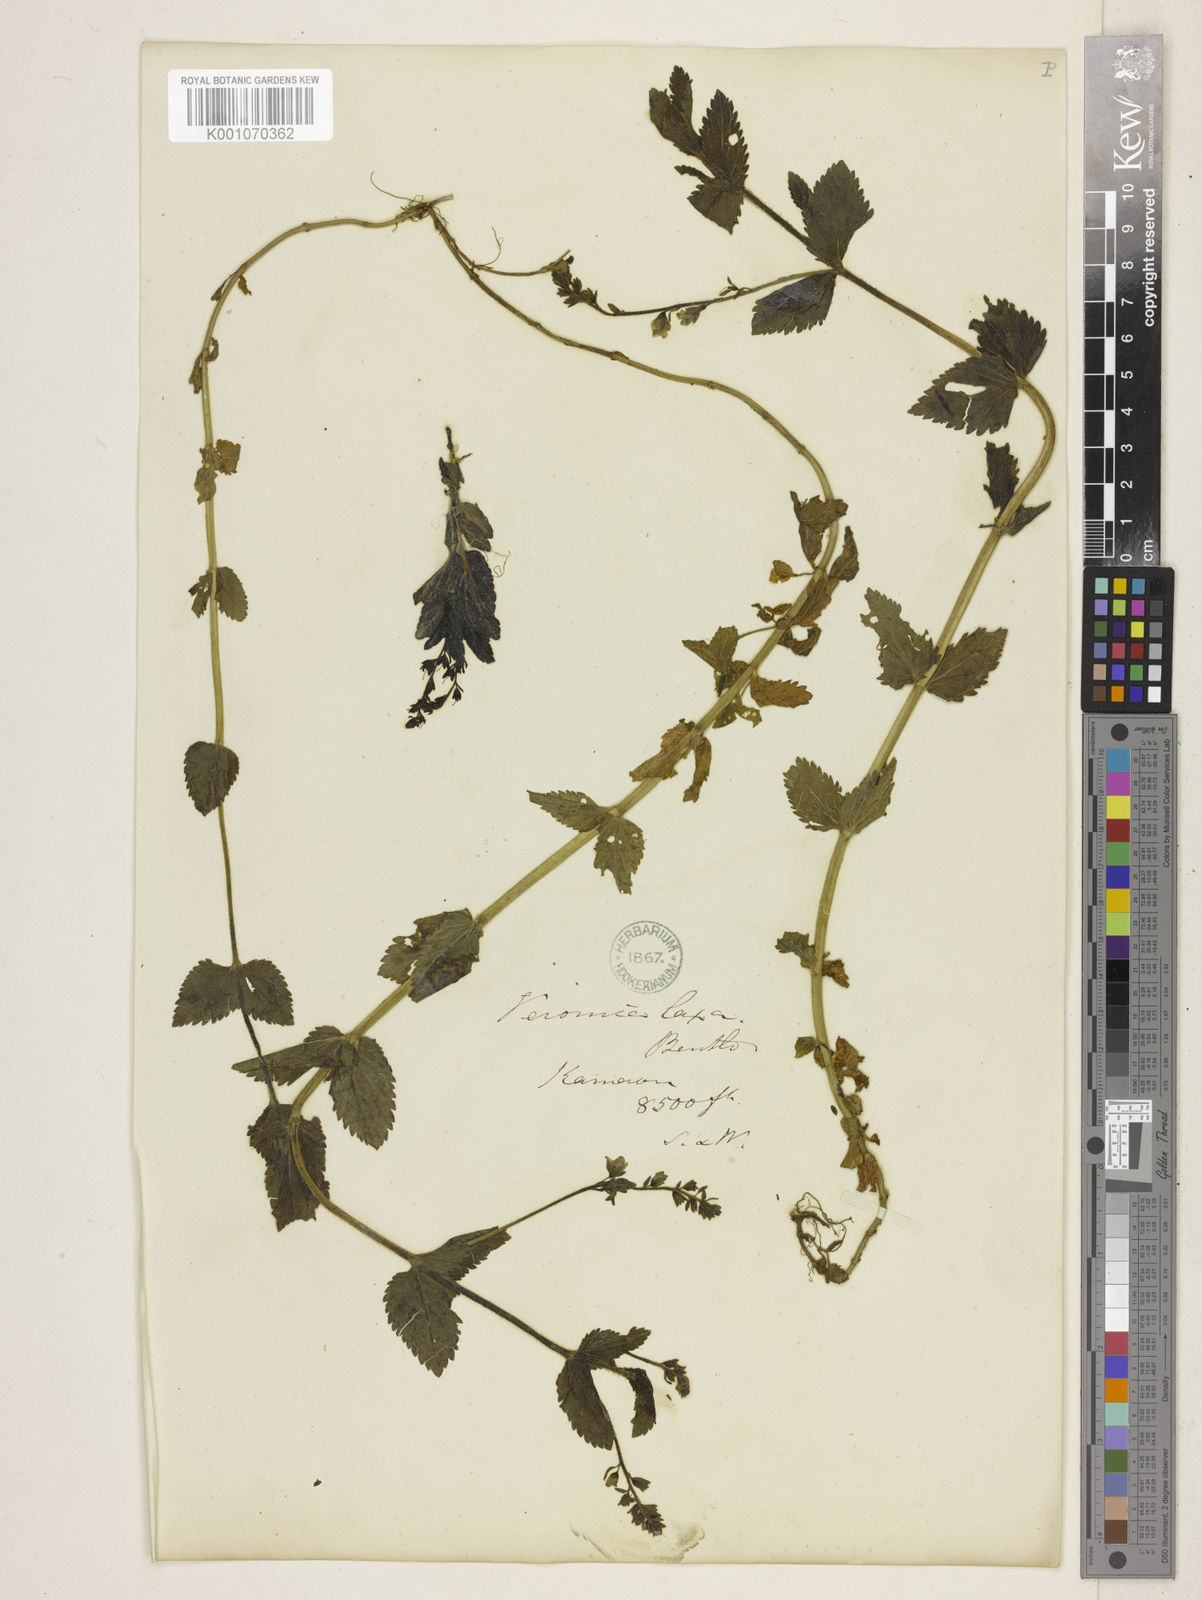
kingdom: Plantae
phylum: Tracheophyta
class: Magnoliopsida
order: Lamiales
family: Plantaginaceae
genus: Veronica
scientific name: Veronica laxa
